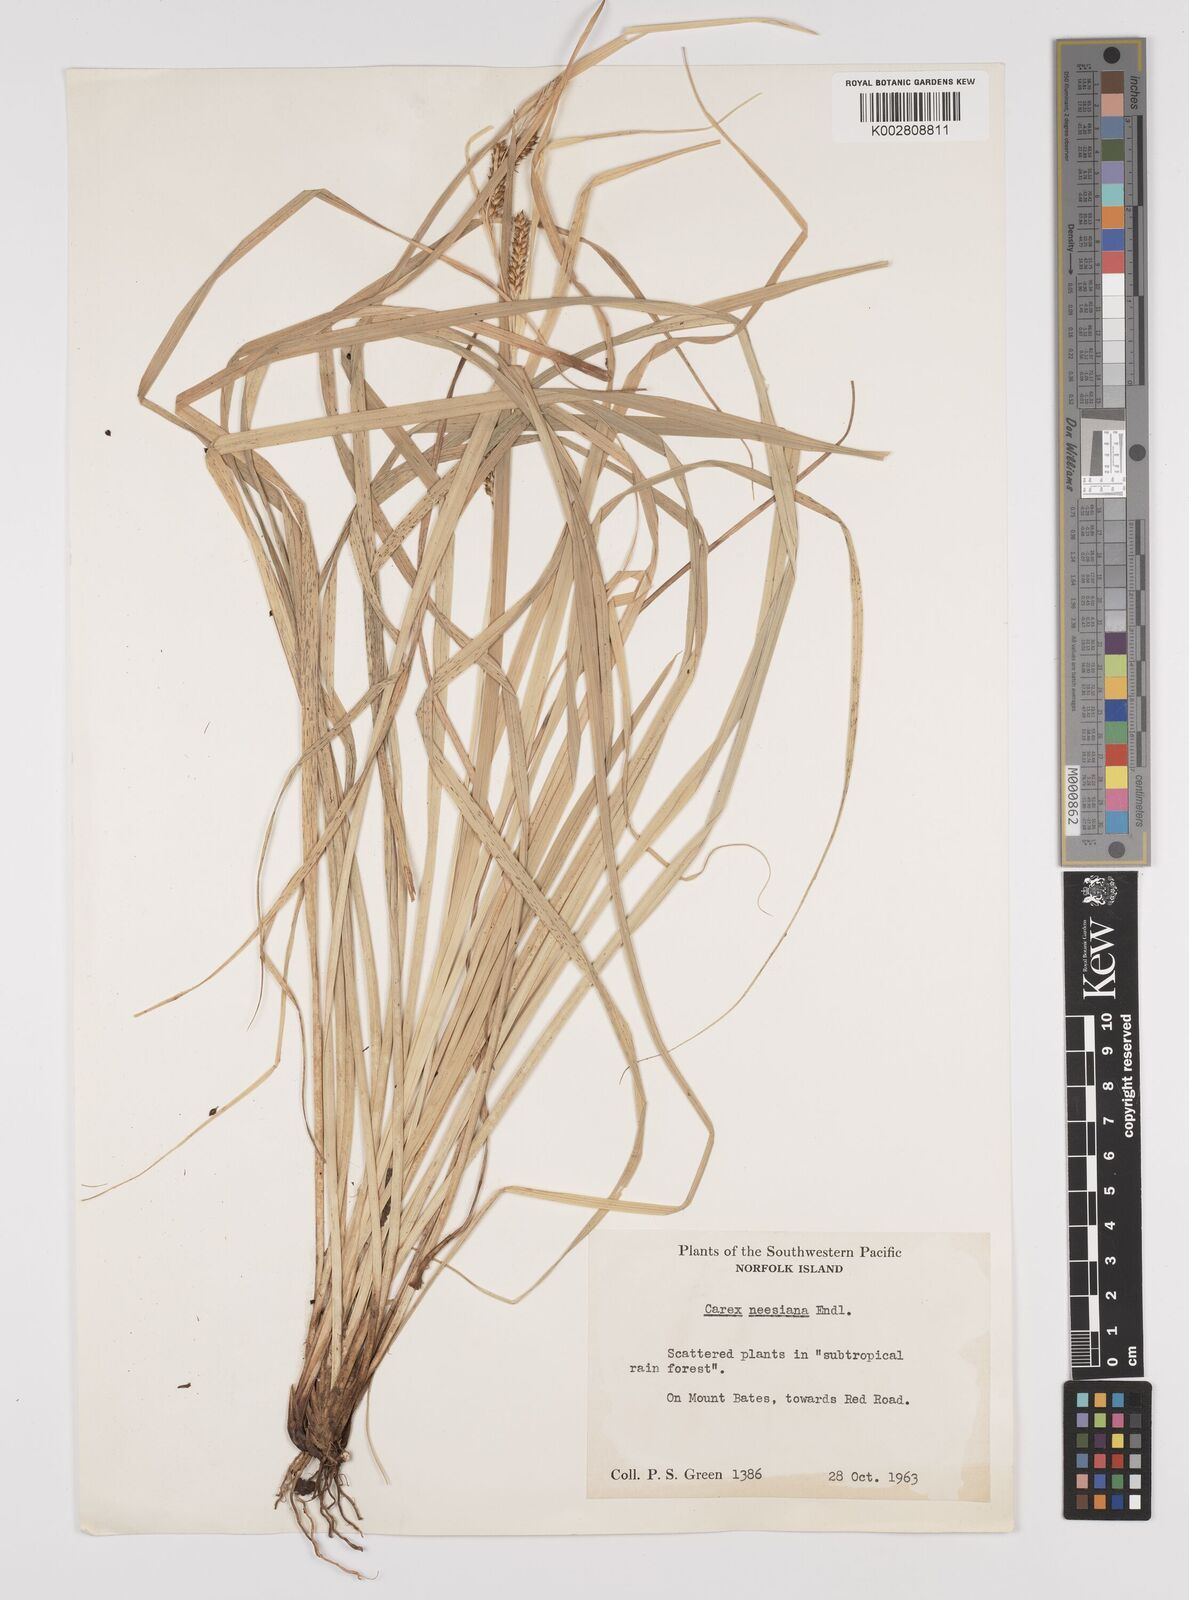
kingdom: Plantae
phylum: Tracheophyta
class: Liliopsida
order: Poales
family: Cyperaceae
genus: Carex
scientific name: Carex dissita
